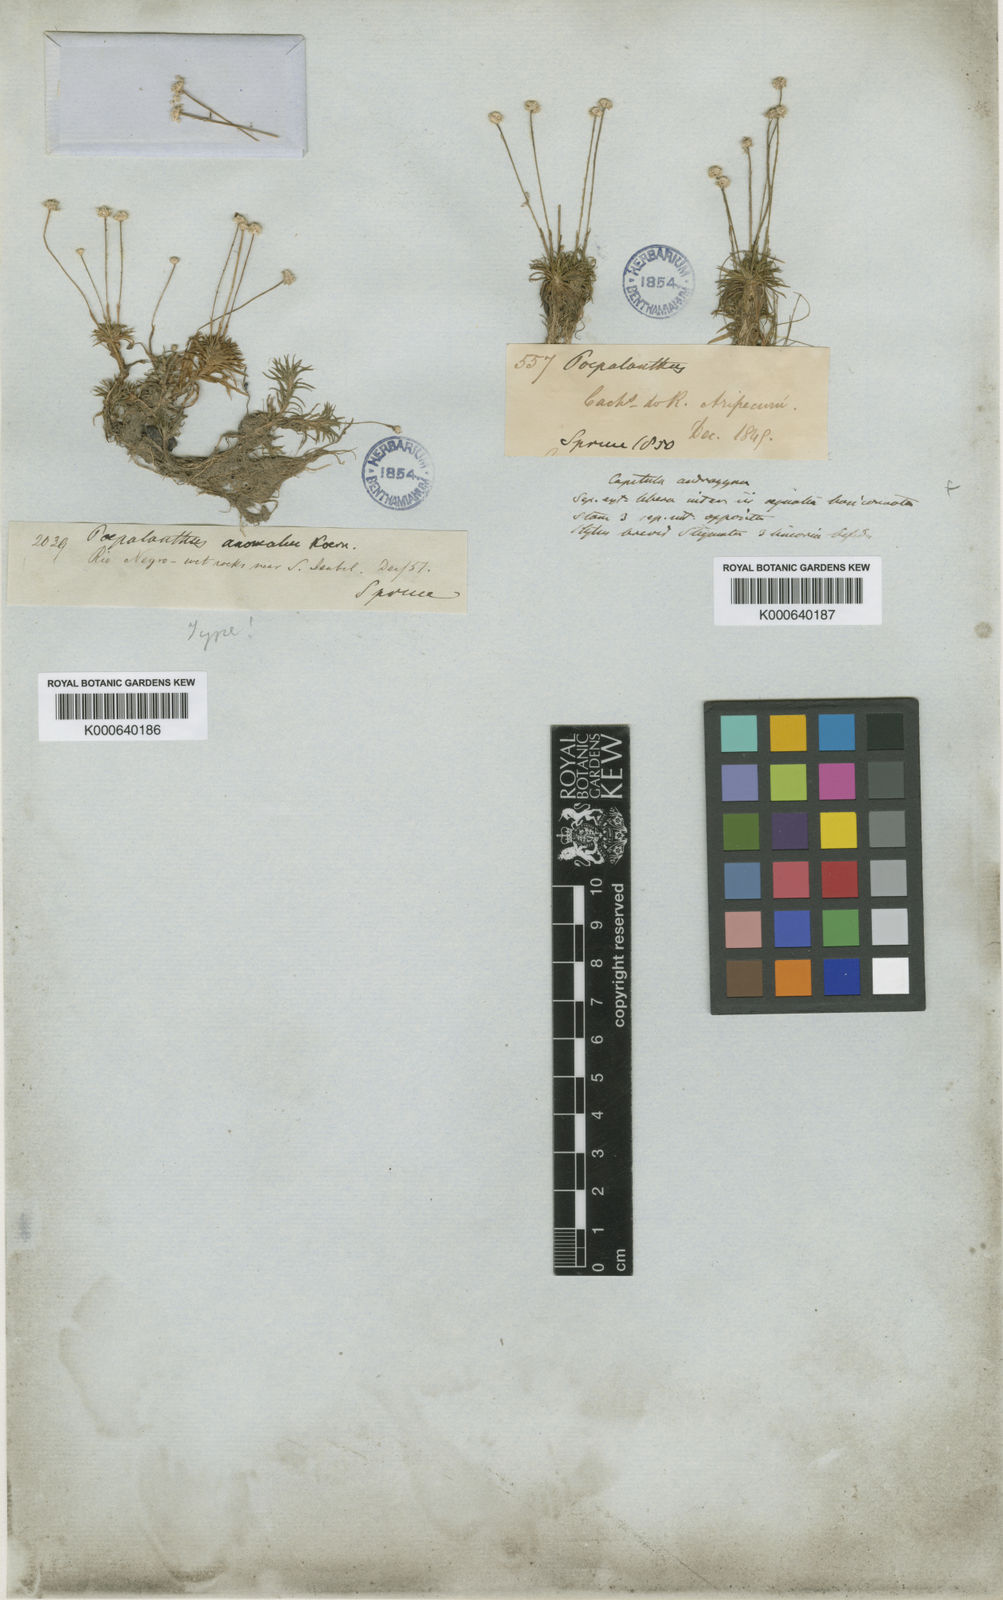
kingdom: Plantae
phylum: Tracheophyta
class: Liliopsida
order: Poales
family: Eriocaulaceae
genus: Syngonanthus
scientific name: Syngonanthus
